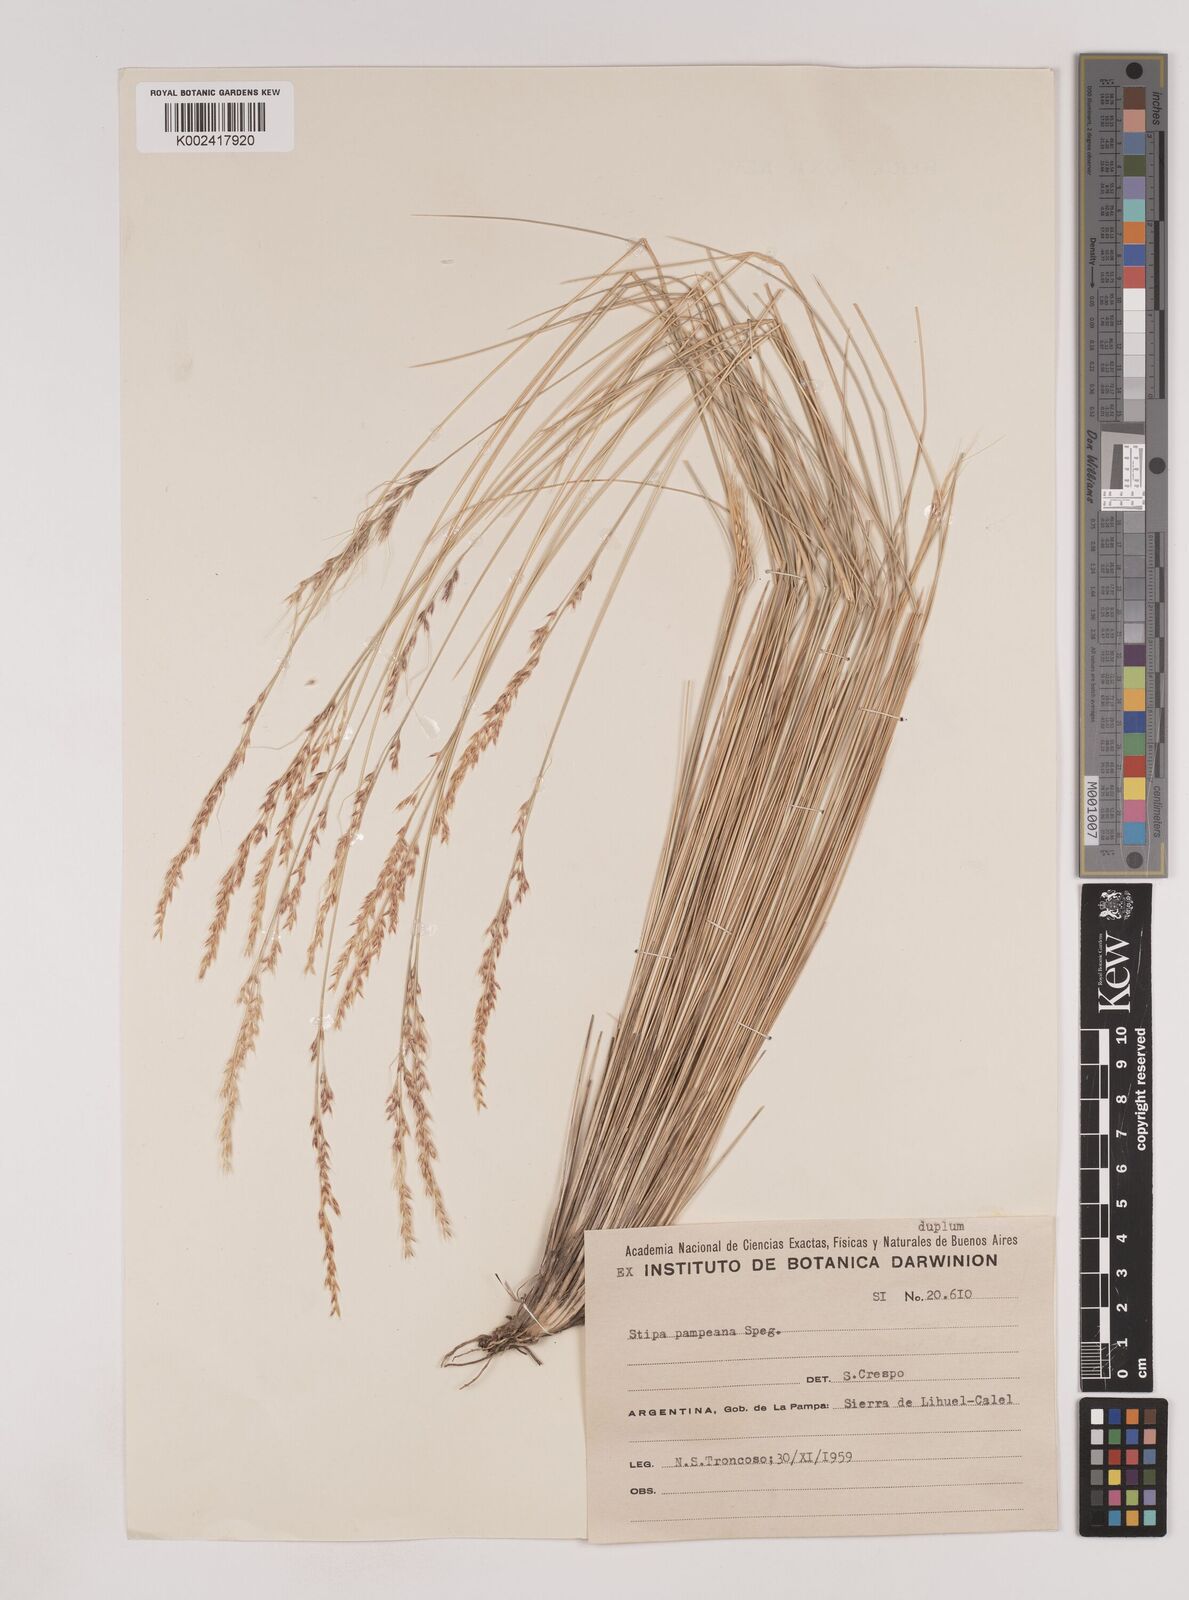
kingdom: Plantae
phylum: Tracheophyta
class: Liliopsida
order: Poales
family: Poaceae
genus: Nassella
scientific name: Nassella pampeana
